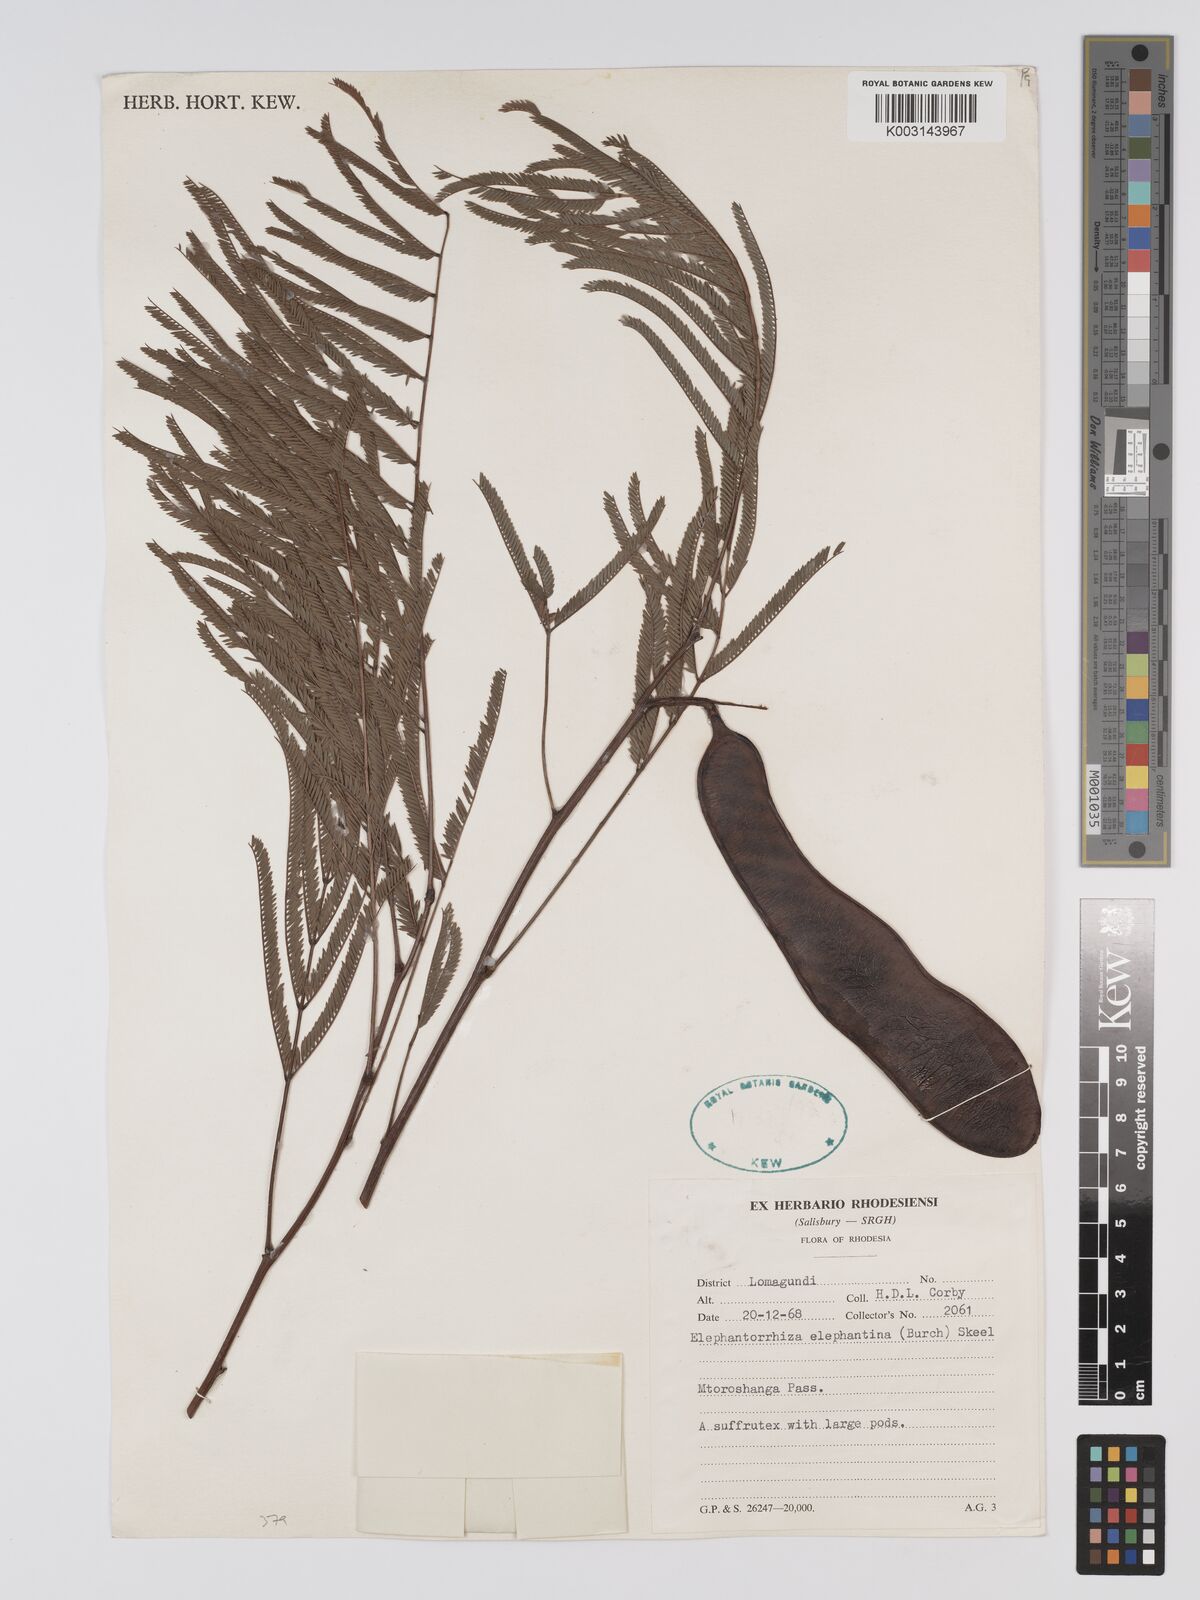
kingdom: Plantae
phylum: Tracheophyta
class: Magnoliopsida
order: Fabales
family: Fabaceae
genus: Elephantorrhiza
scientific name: Elephantorrhiza elephantina
